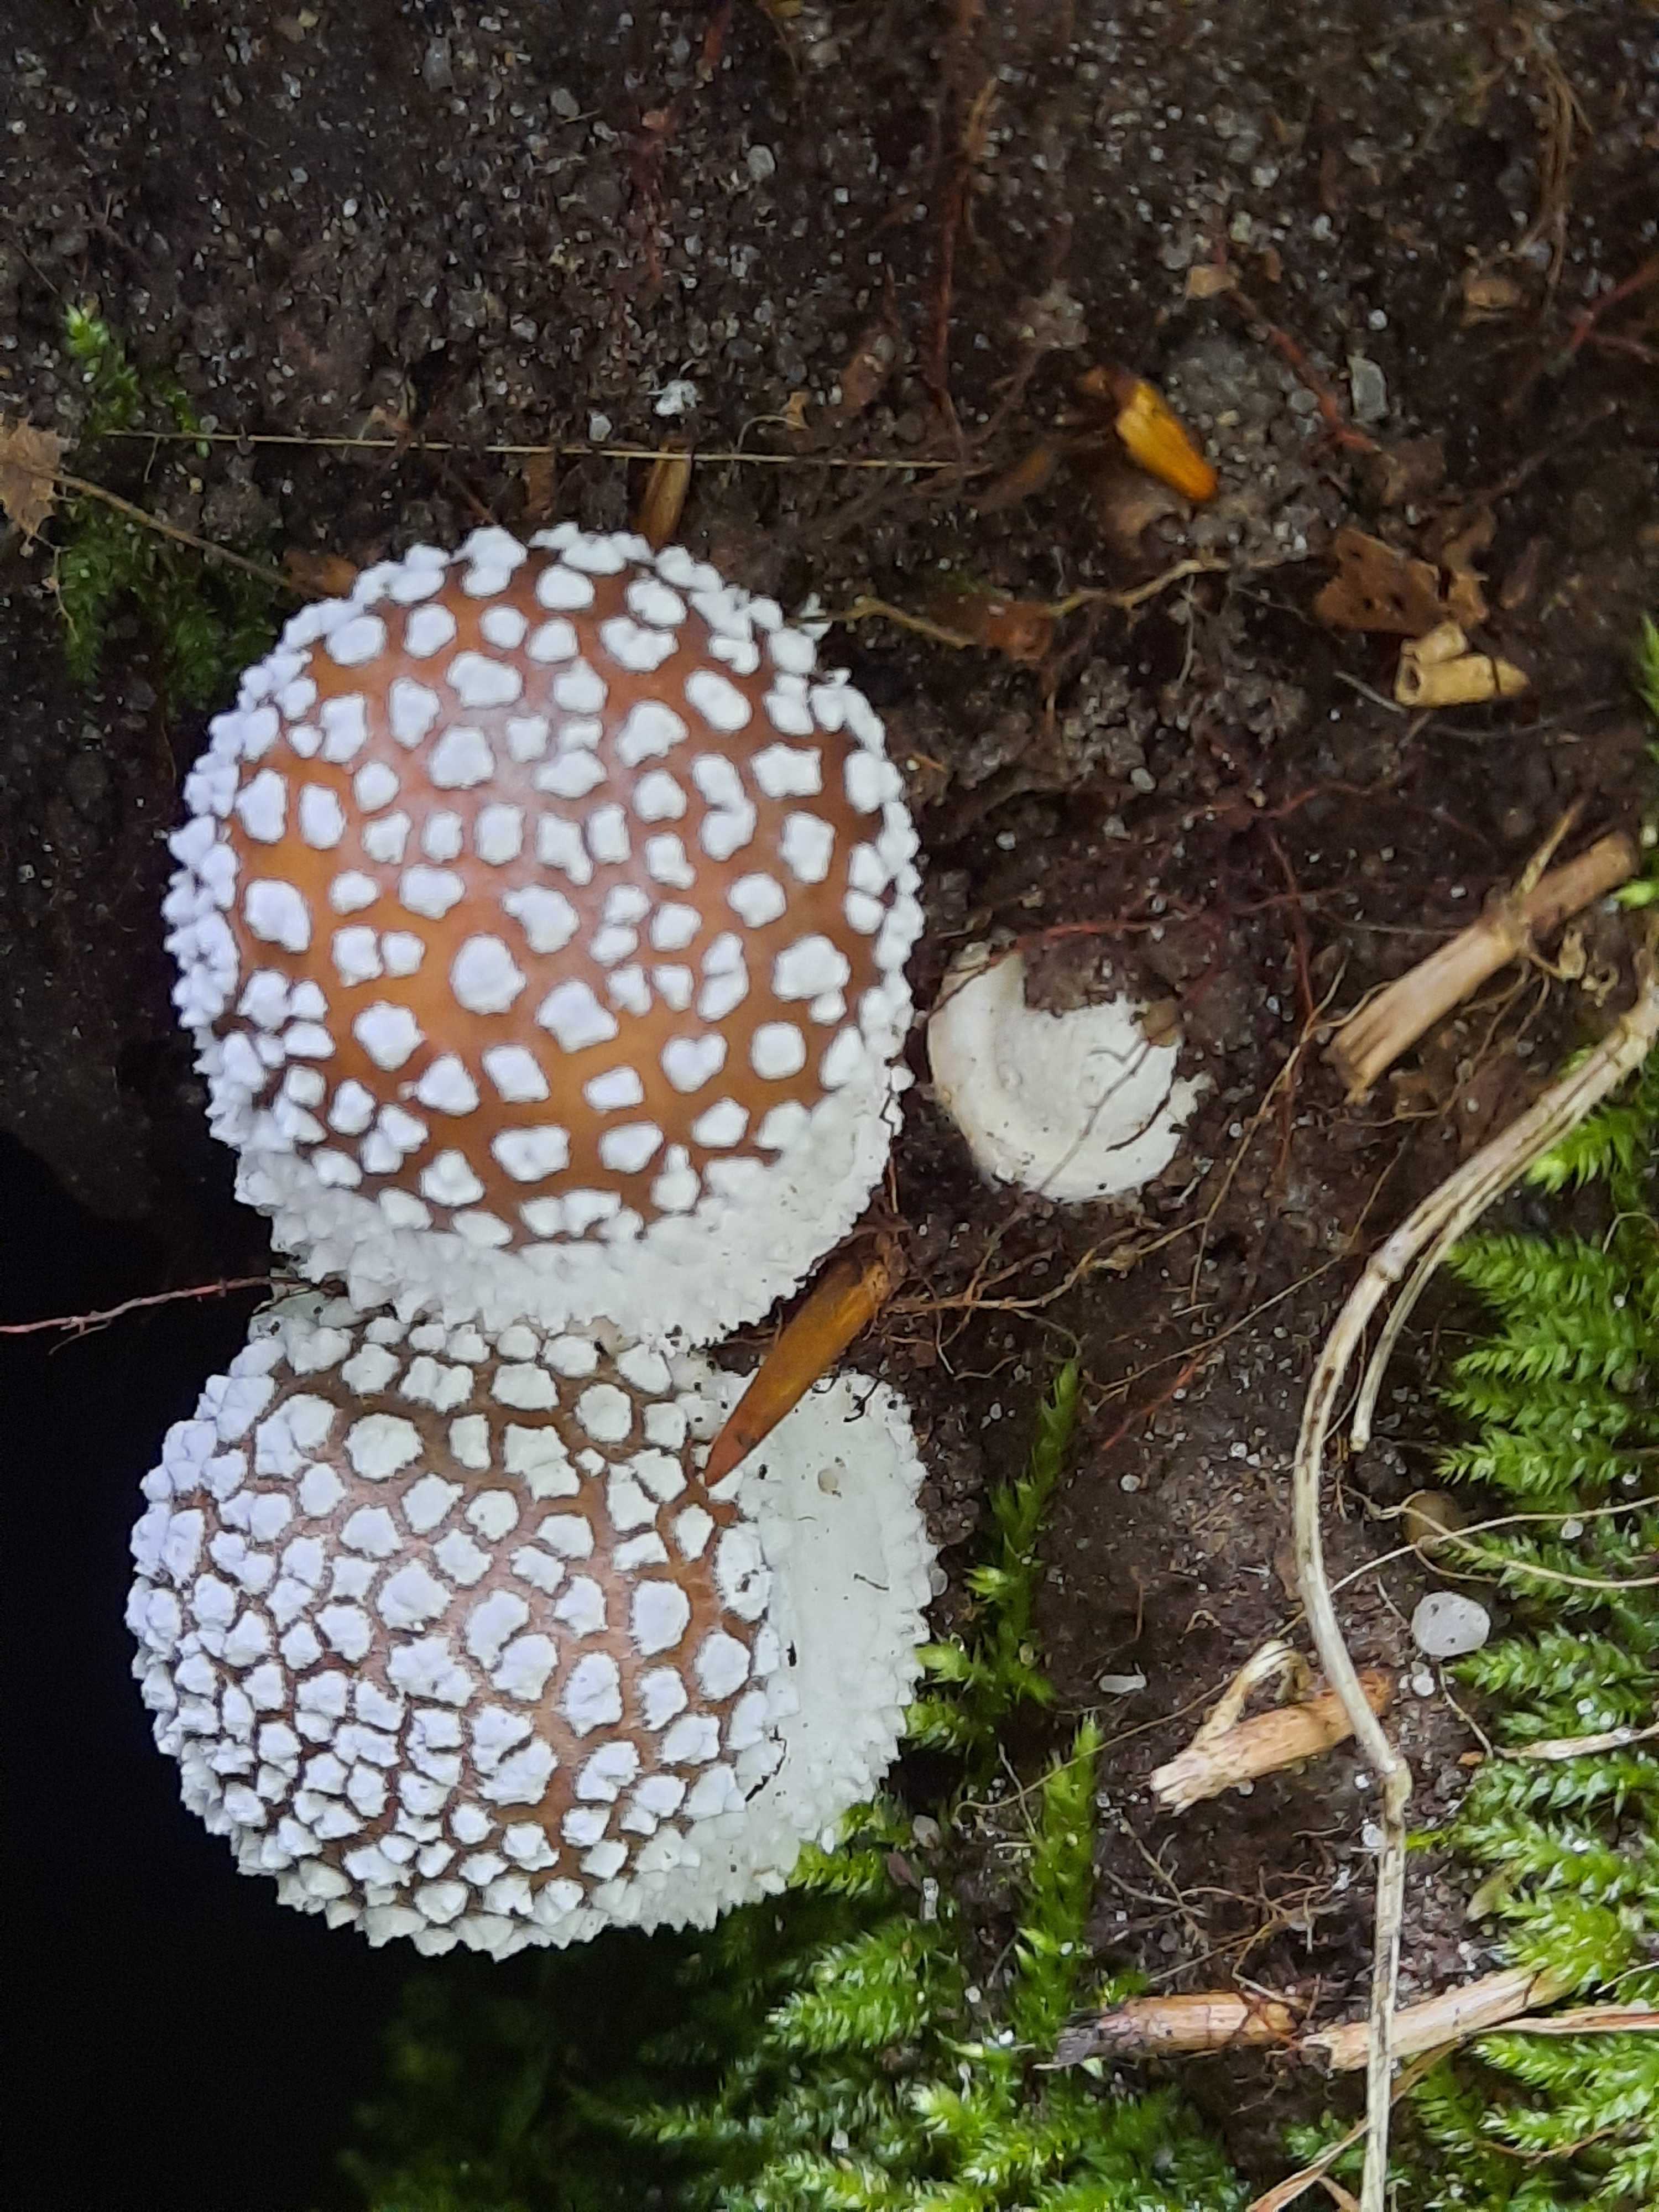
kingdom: Fungi
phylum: Basidiomycota
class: Agaricomycetes
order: Agaricales
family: Amanitaceae
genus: Amanita
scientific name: Amanita pantherina
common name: panter-fluesvamp
